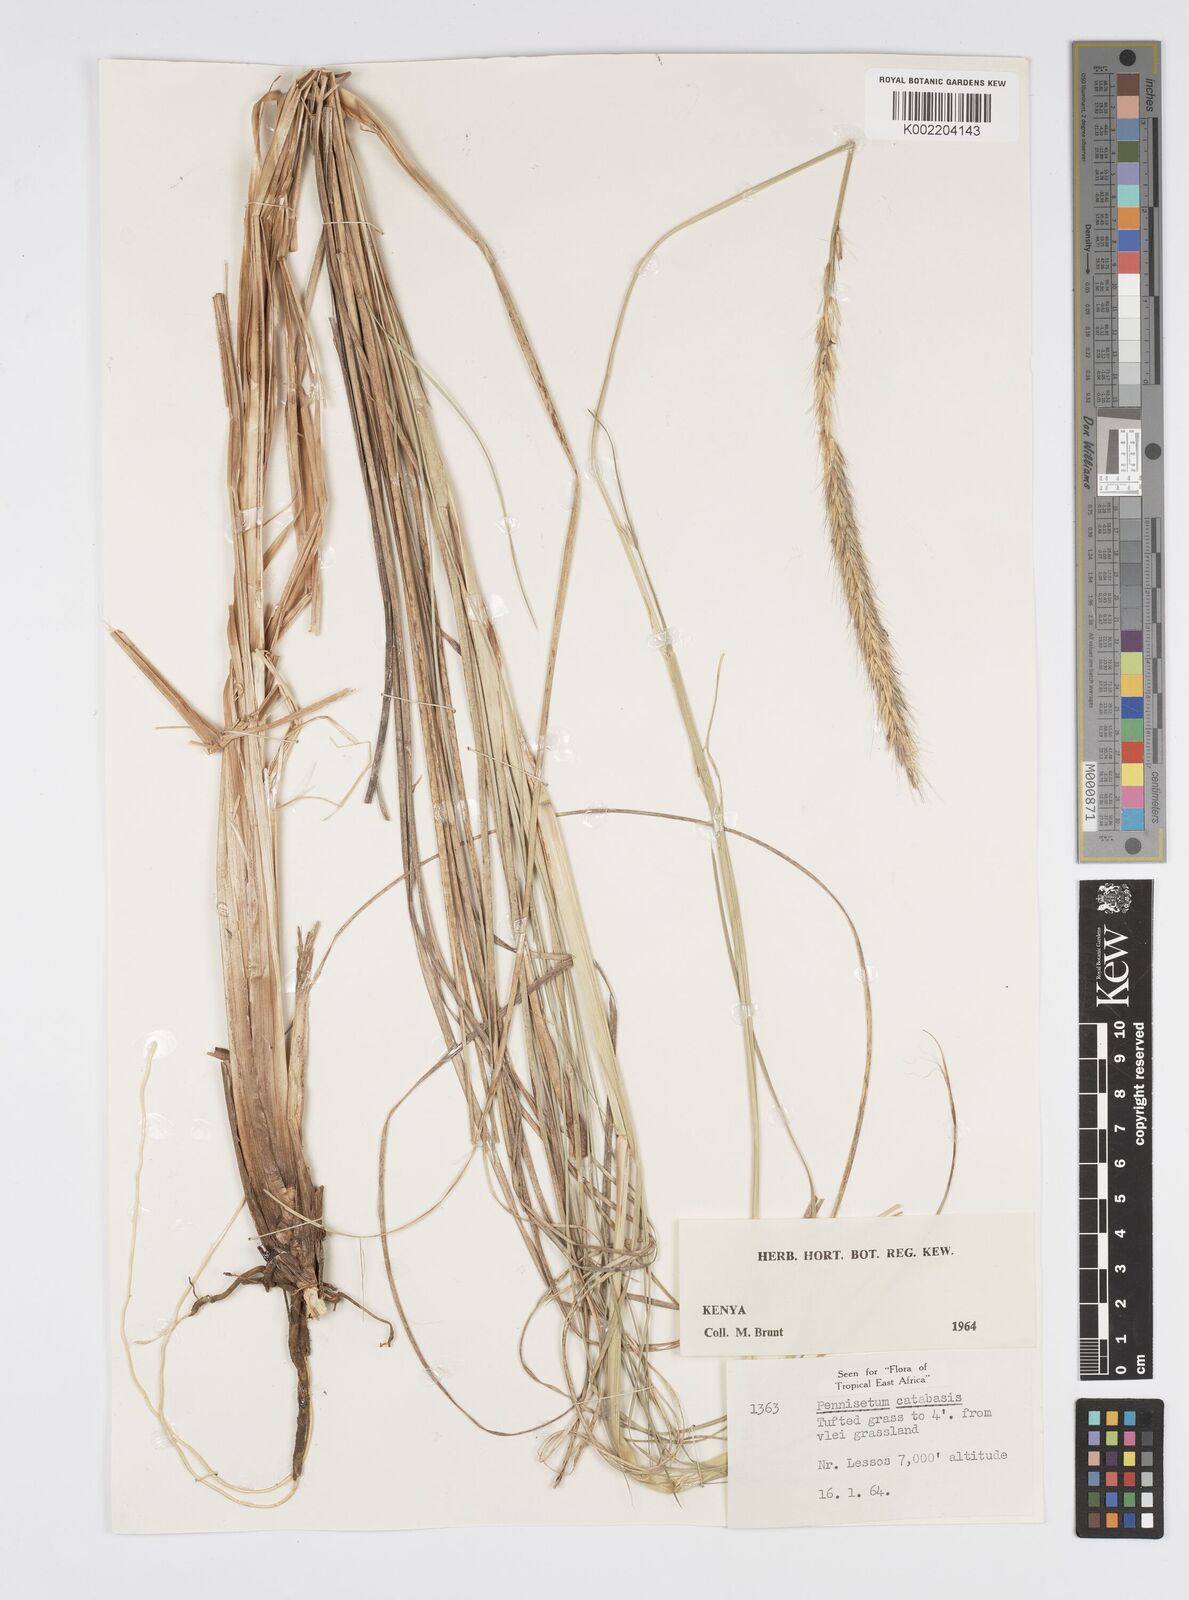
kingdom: Plantae
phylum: Tracheophyta
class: Liliopsida
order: Poales
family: Poaceae
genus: Cenchrus
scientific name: Cenchrus Pennisetum spec
